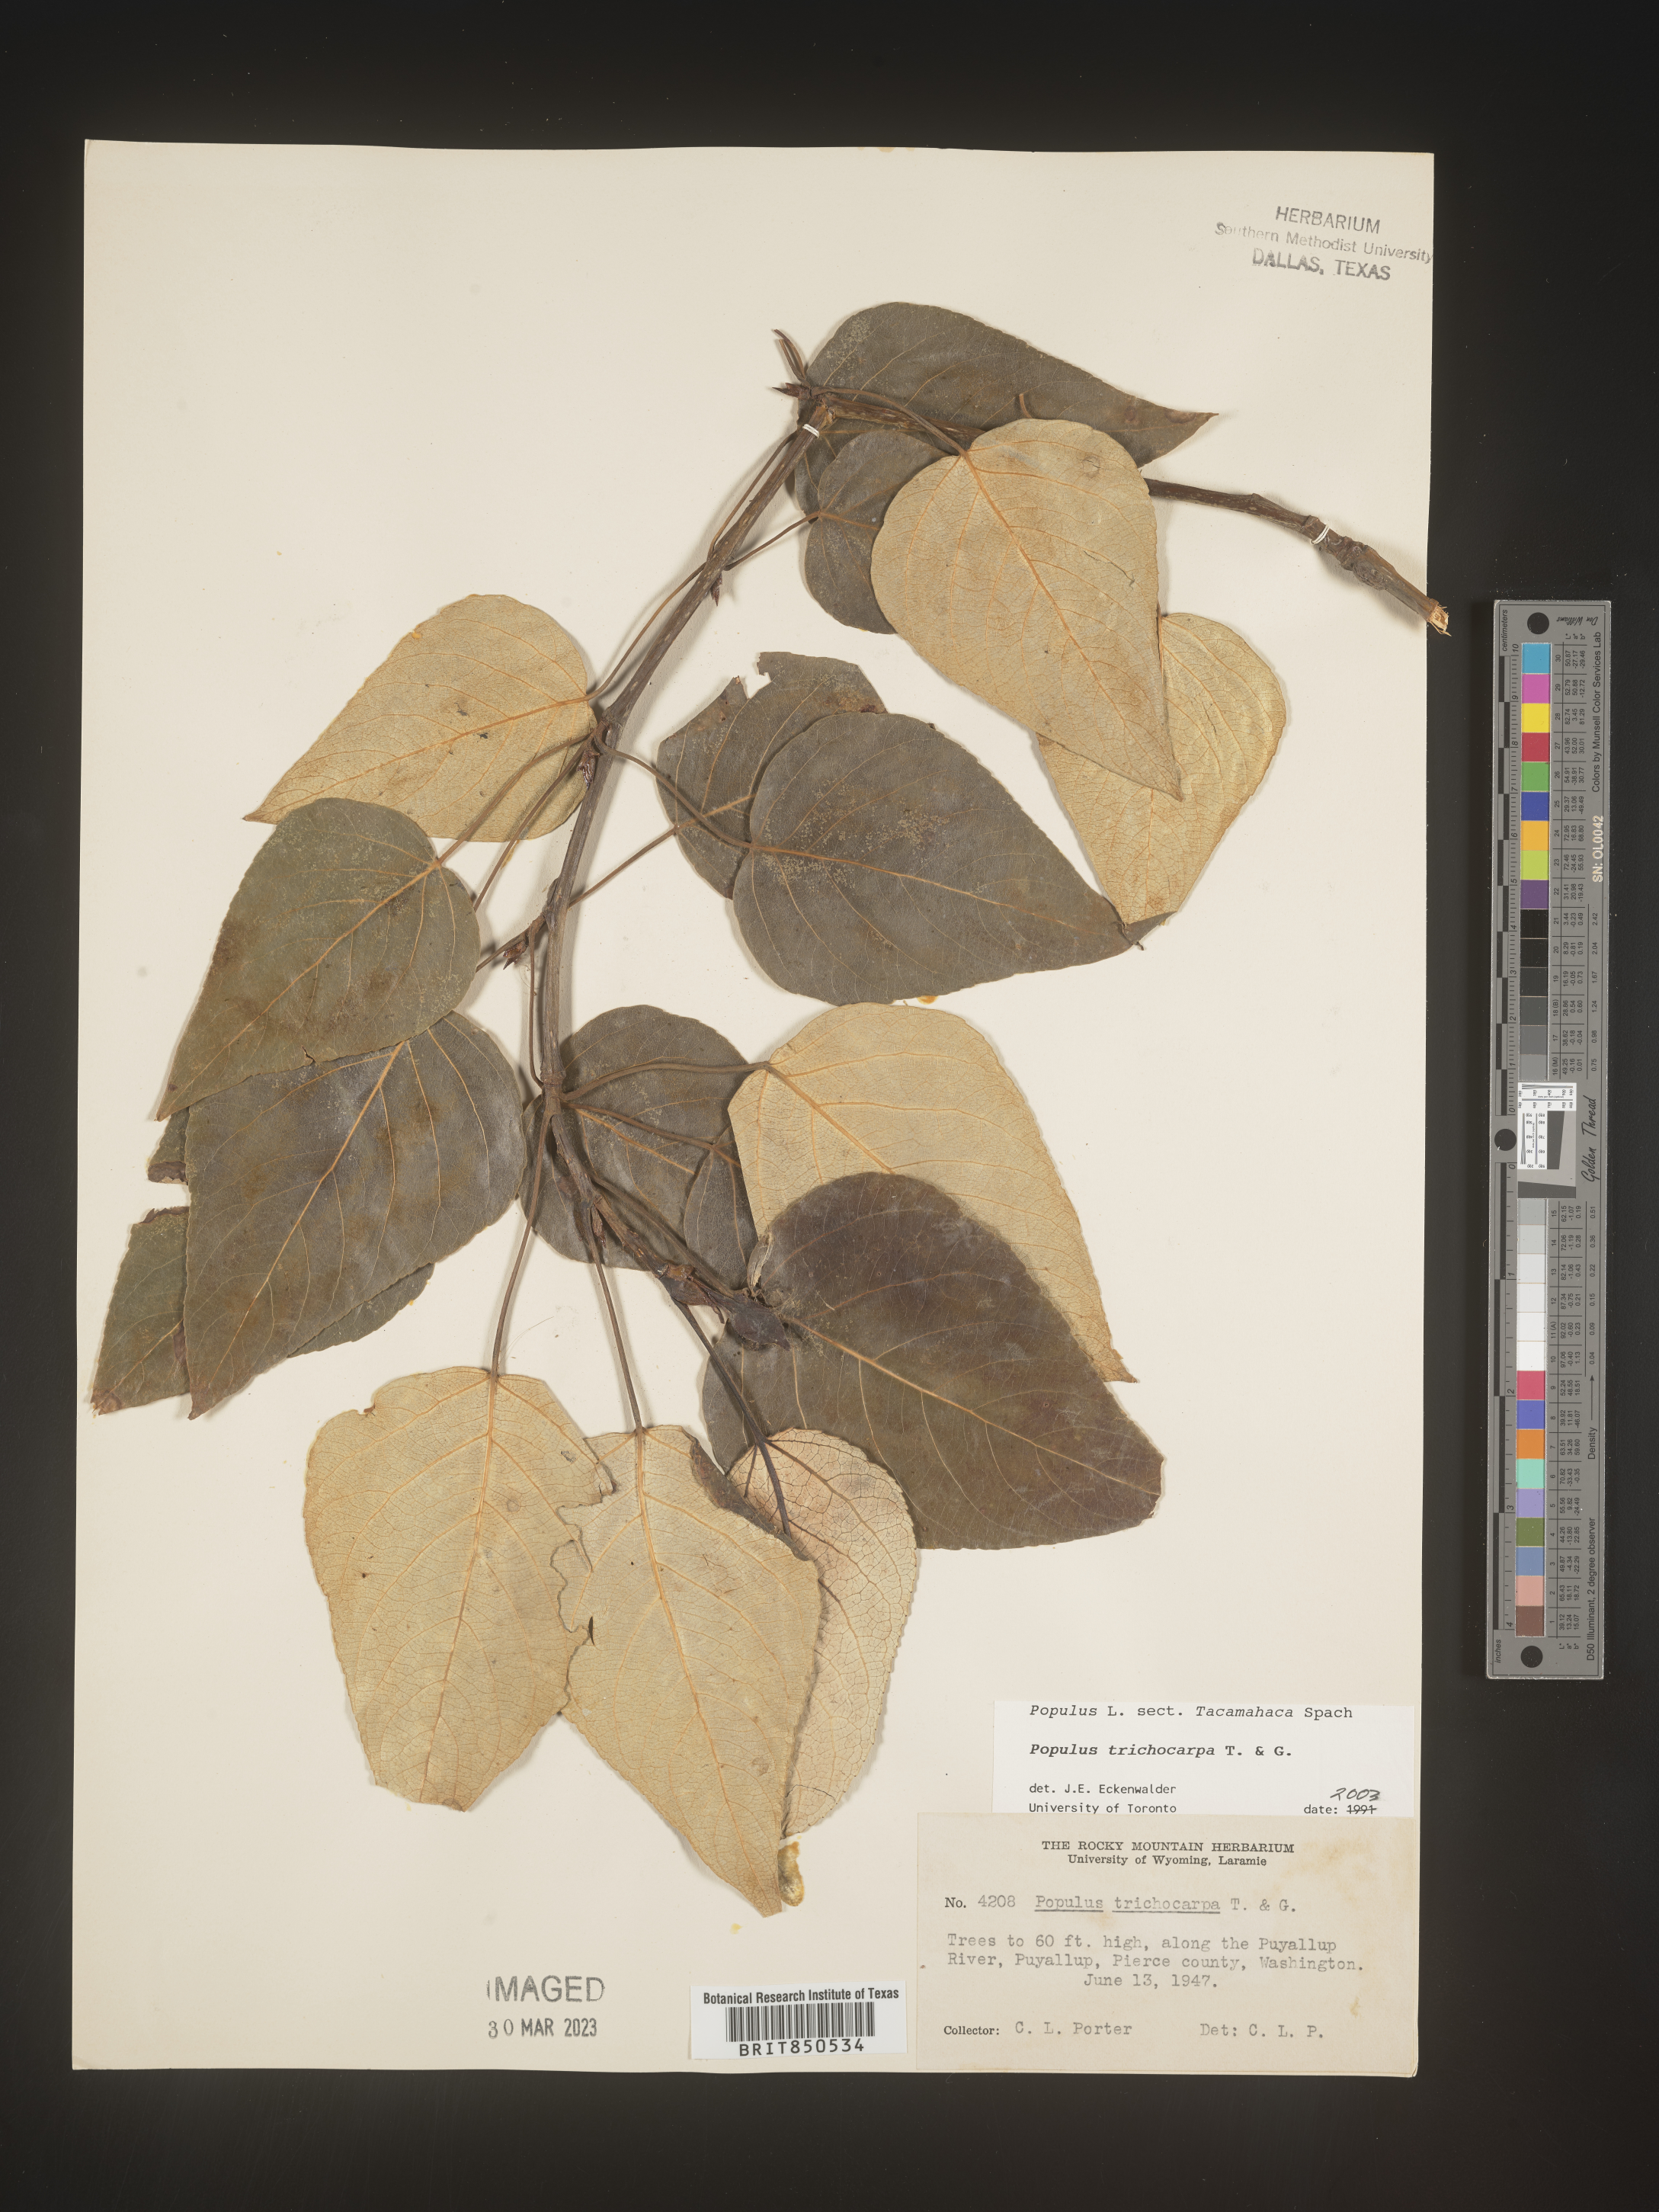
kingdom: Plantae
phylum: Tracheophyta
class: Magnoliopsida
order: Malpighiales
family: Salicaceae
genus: Populus
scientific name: Populus trichocarpa
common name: Black cottonwood
